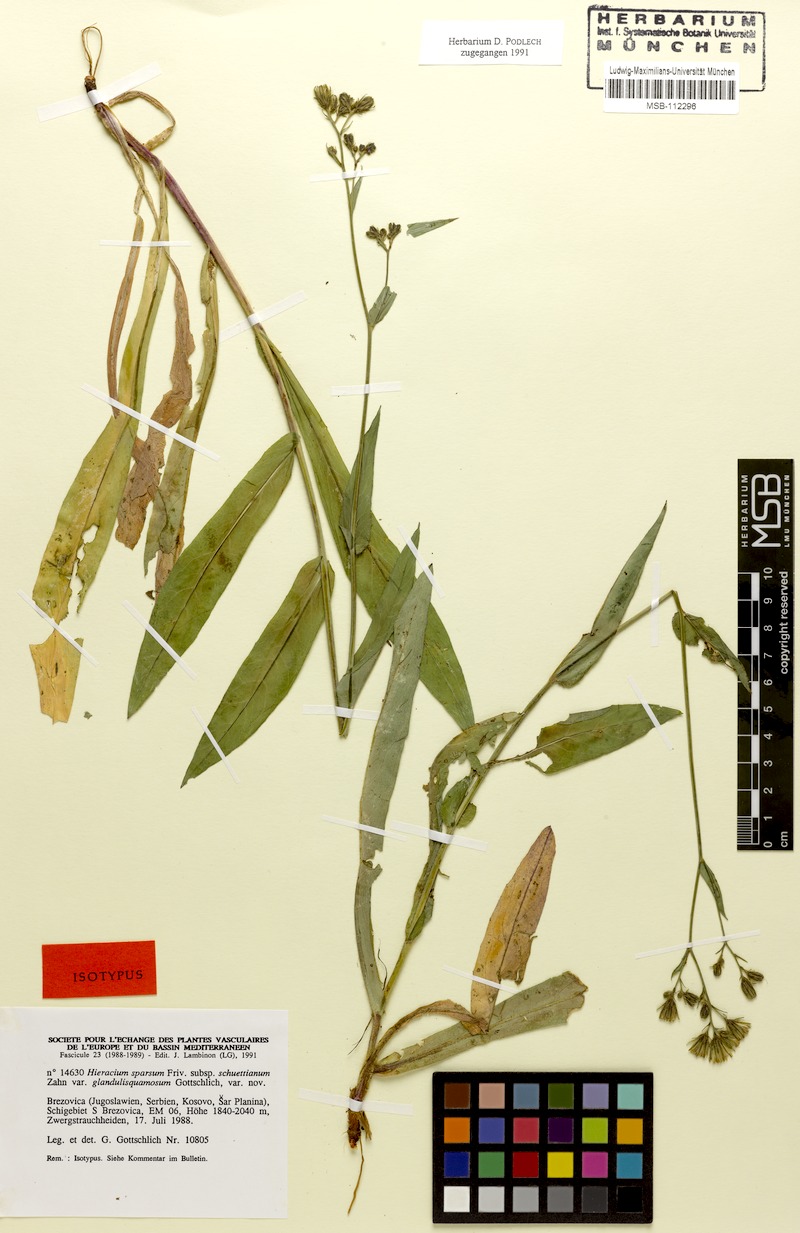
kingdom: Plantae
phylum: Tracheophyta
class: Magnoliopsida
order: Asterales
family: Asteraceae
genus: Hieracium
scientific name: Hieracium sparsum
